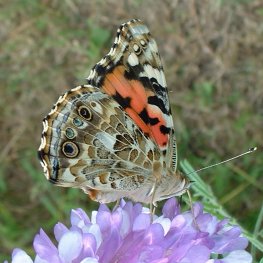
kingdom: Animalia
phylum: Arthropoda
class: Insecta
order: Lepidoptera
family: Nymphalidae
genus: Vanessa
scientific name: Vanessa cardui
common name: Painted Lady
